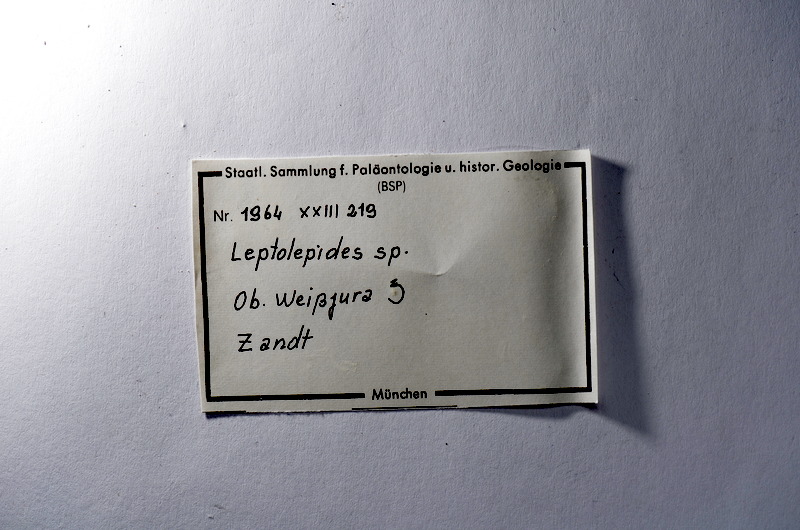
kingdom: Animalia
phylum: Chordata
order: Salmoniformes
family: Orthogonikleithridae
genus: Leptolepides
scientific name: Leptolepides
